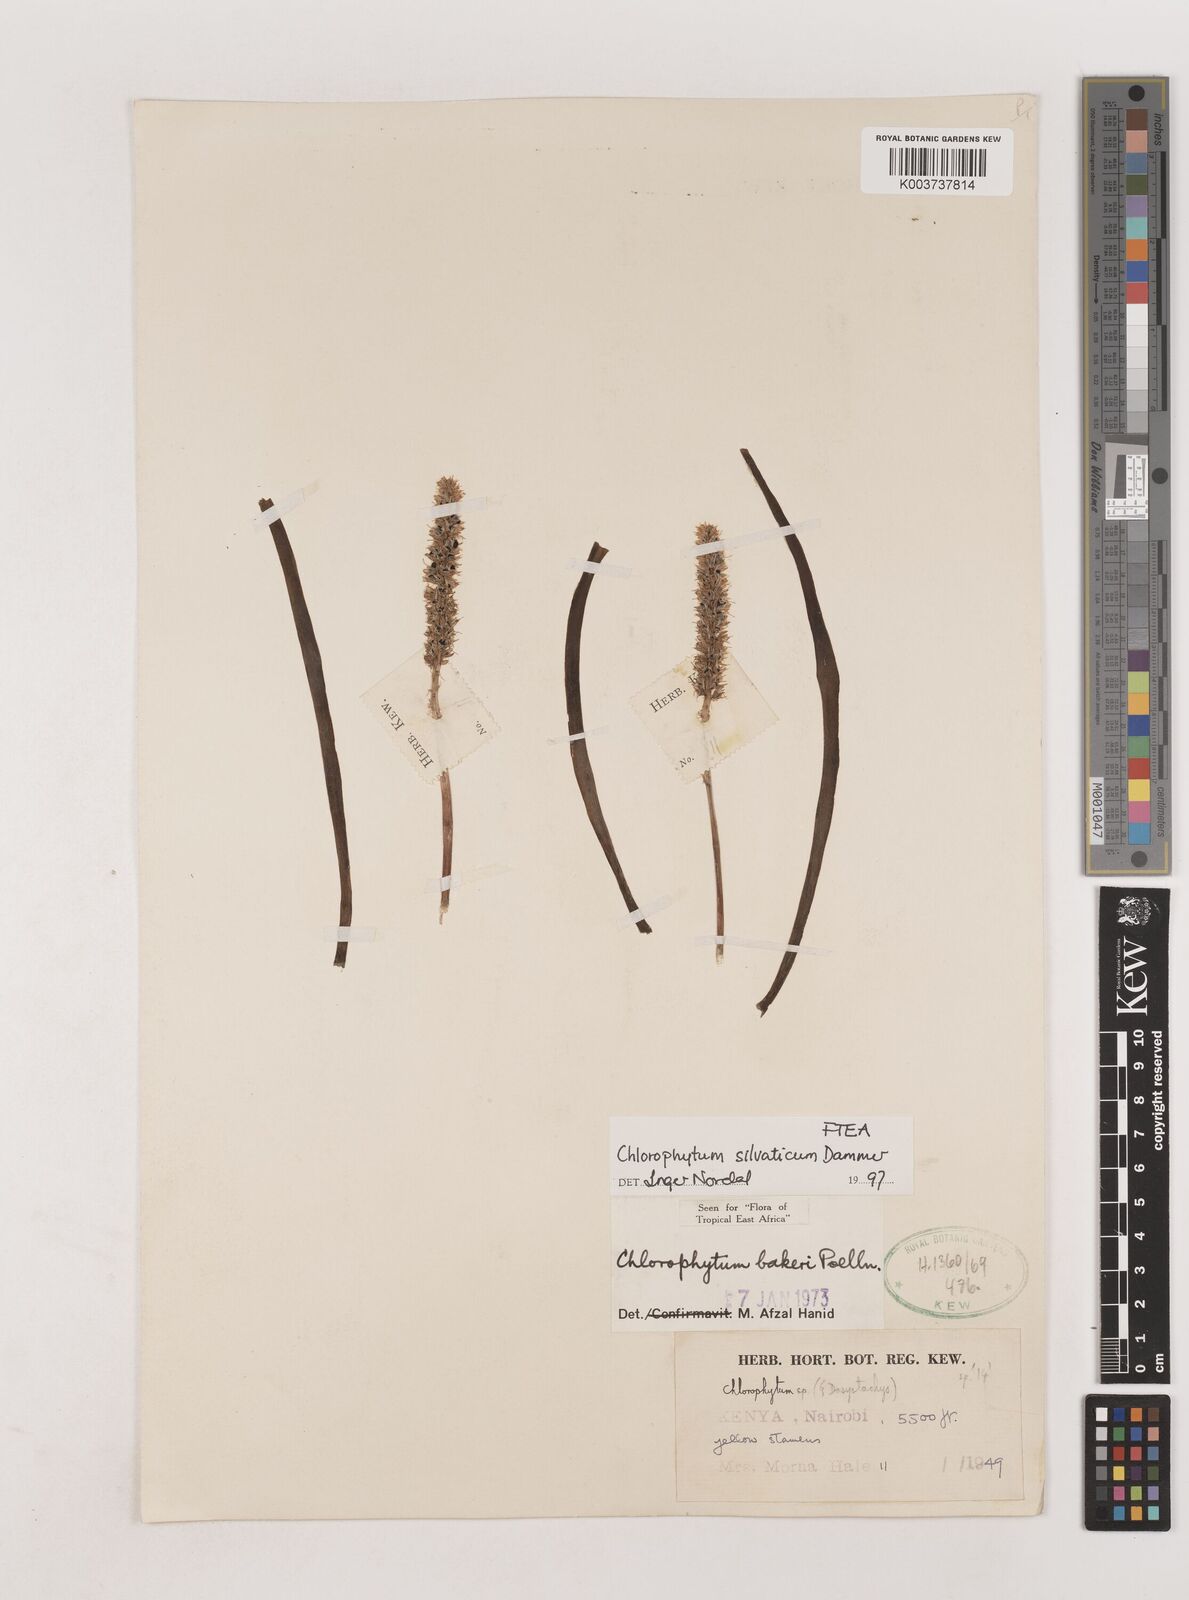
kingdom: Plantae
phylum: Tracheophyta
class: Liliopsida
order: Asparagales
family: Asparagaceae
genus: Chlorophytum
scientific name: Chlorophytum africanum
